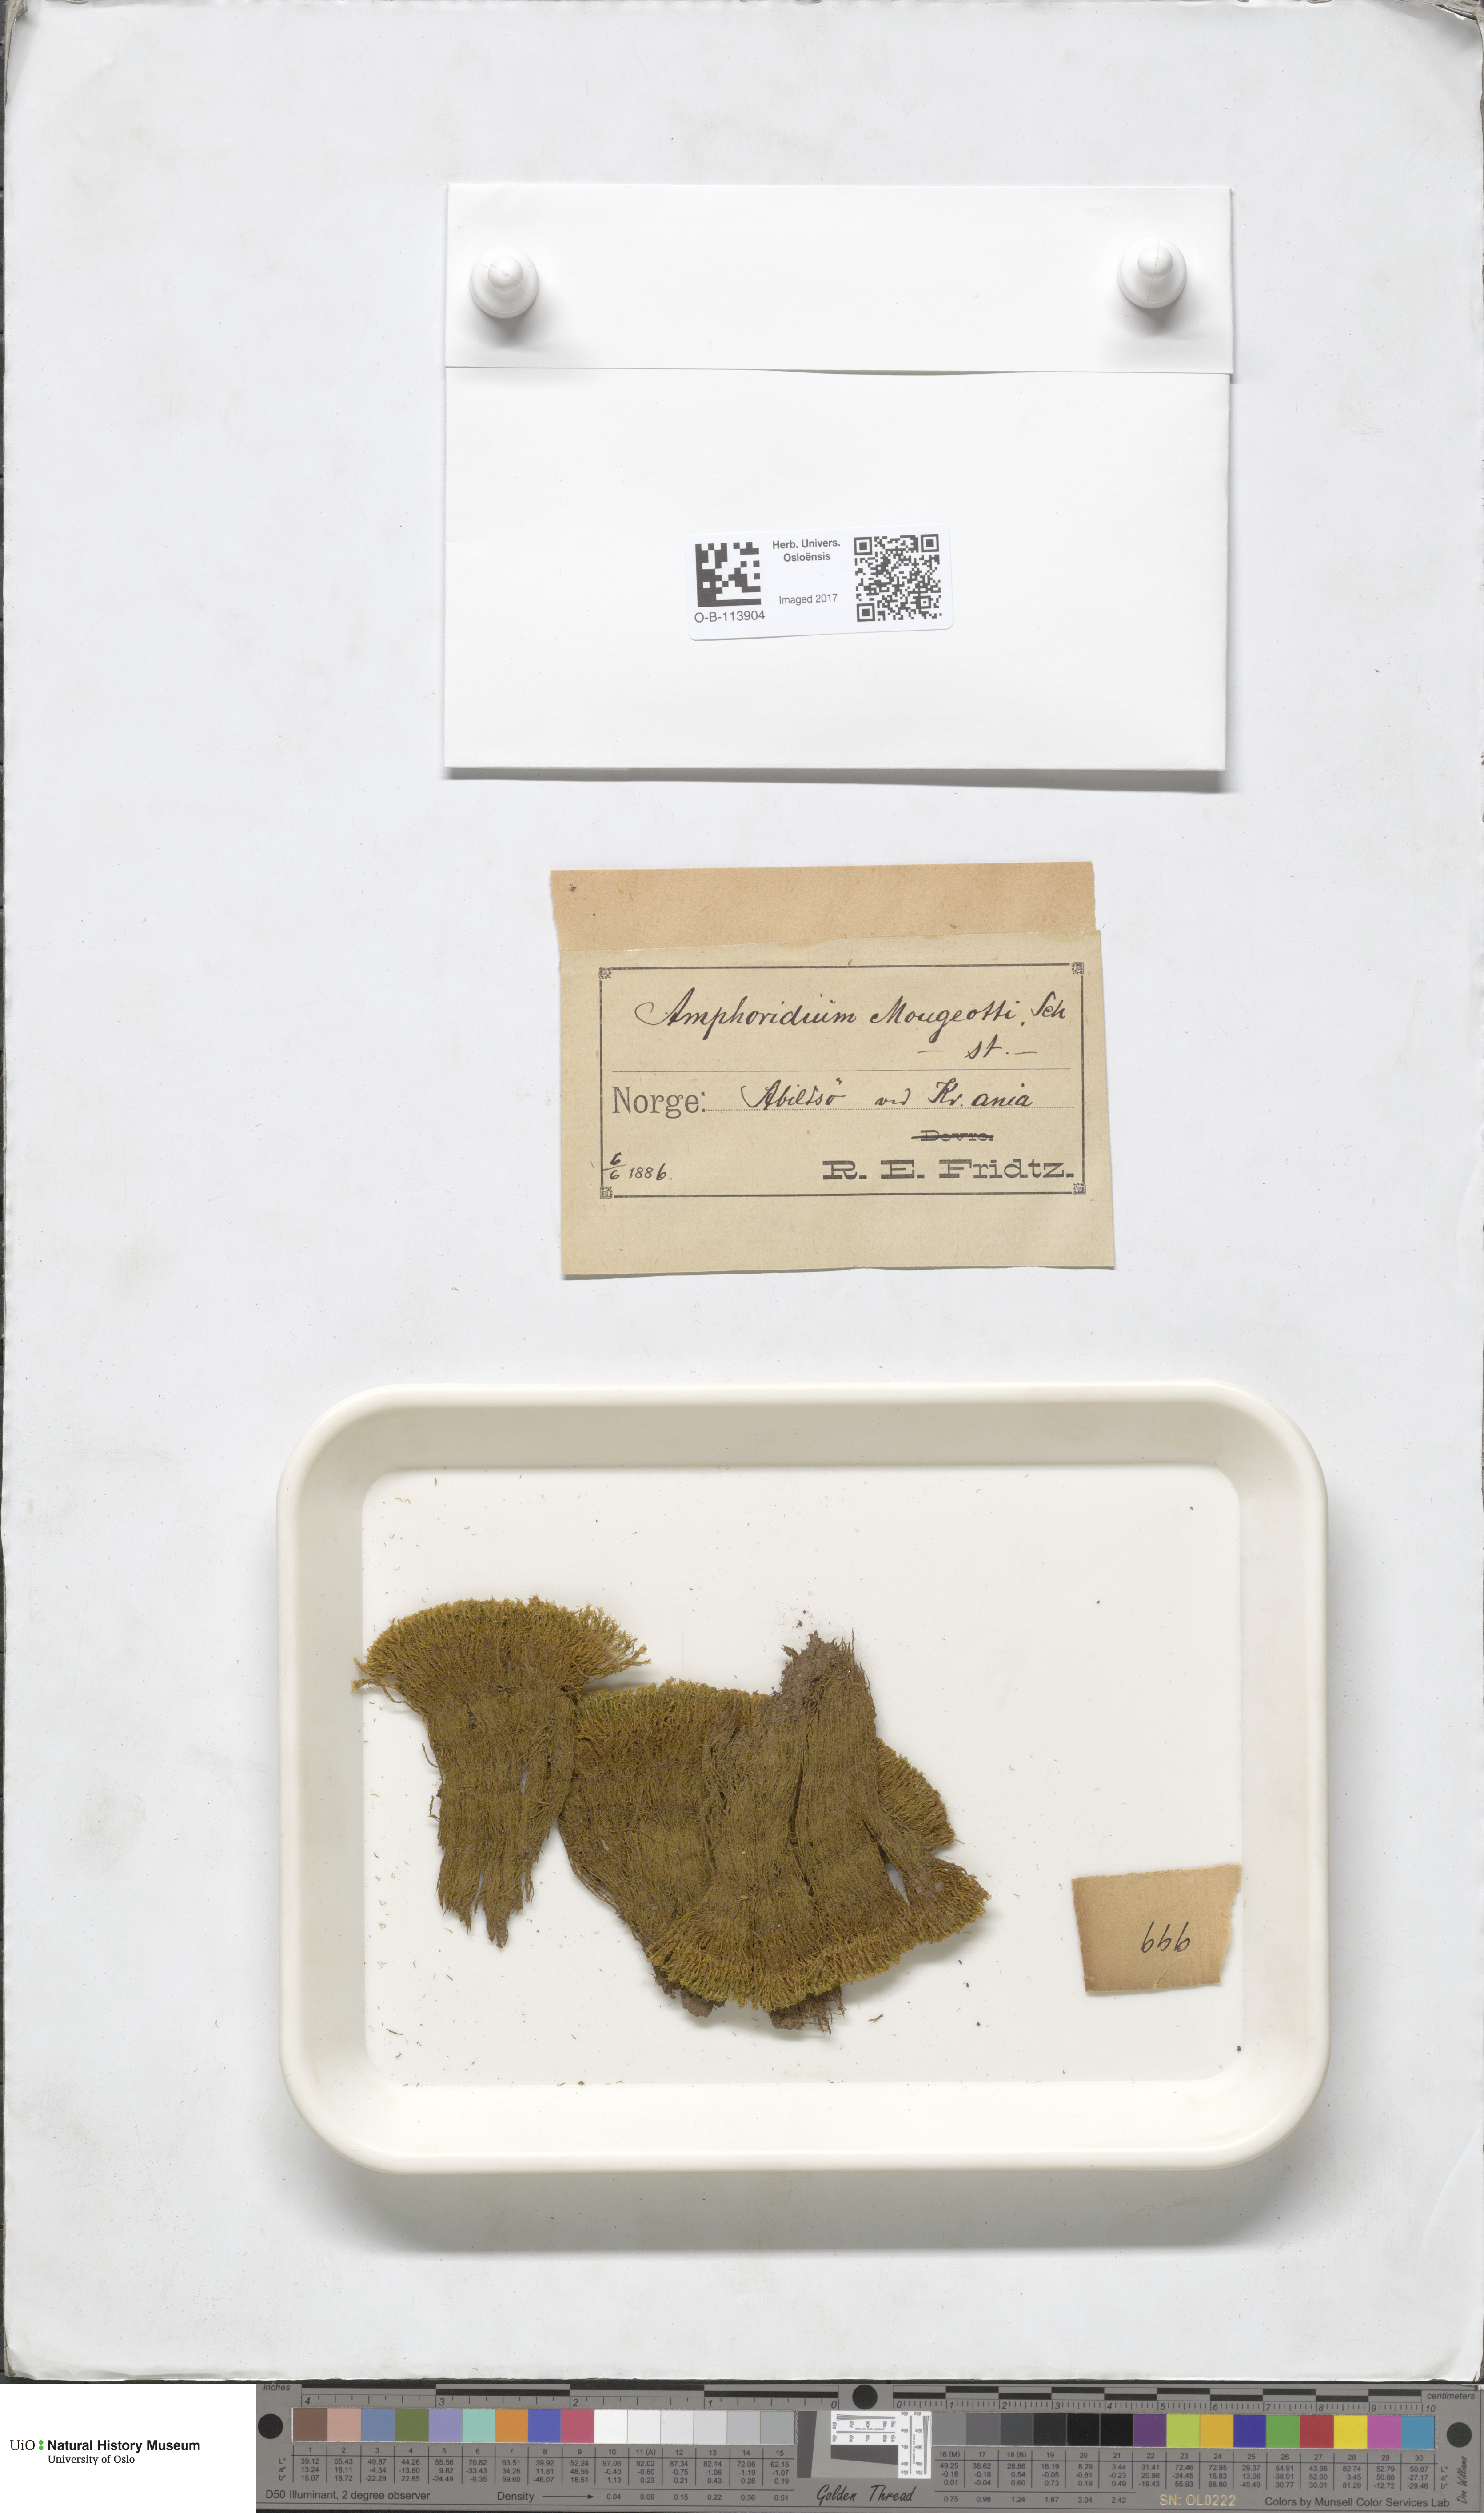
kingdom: Plantae
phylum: Bryophyta
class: Bryopsida
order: Dicranales
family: Amphidiaceae
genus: Amphidium
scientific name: Amphidium mougeotii
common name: Mougeot's yoke moss
